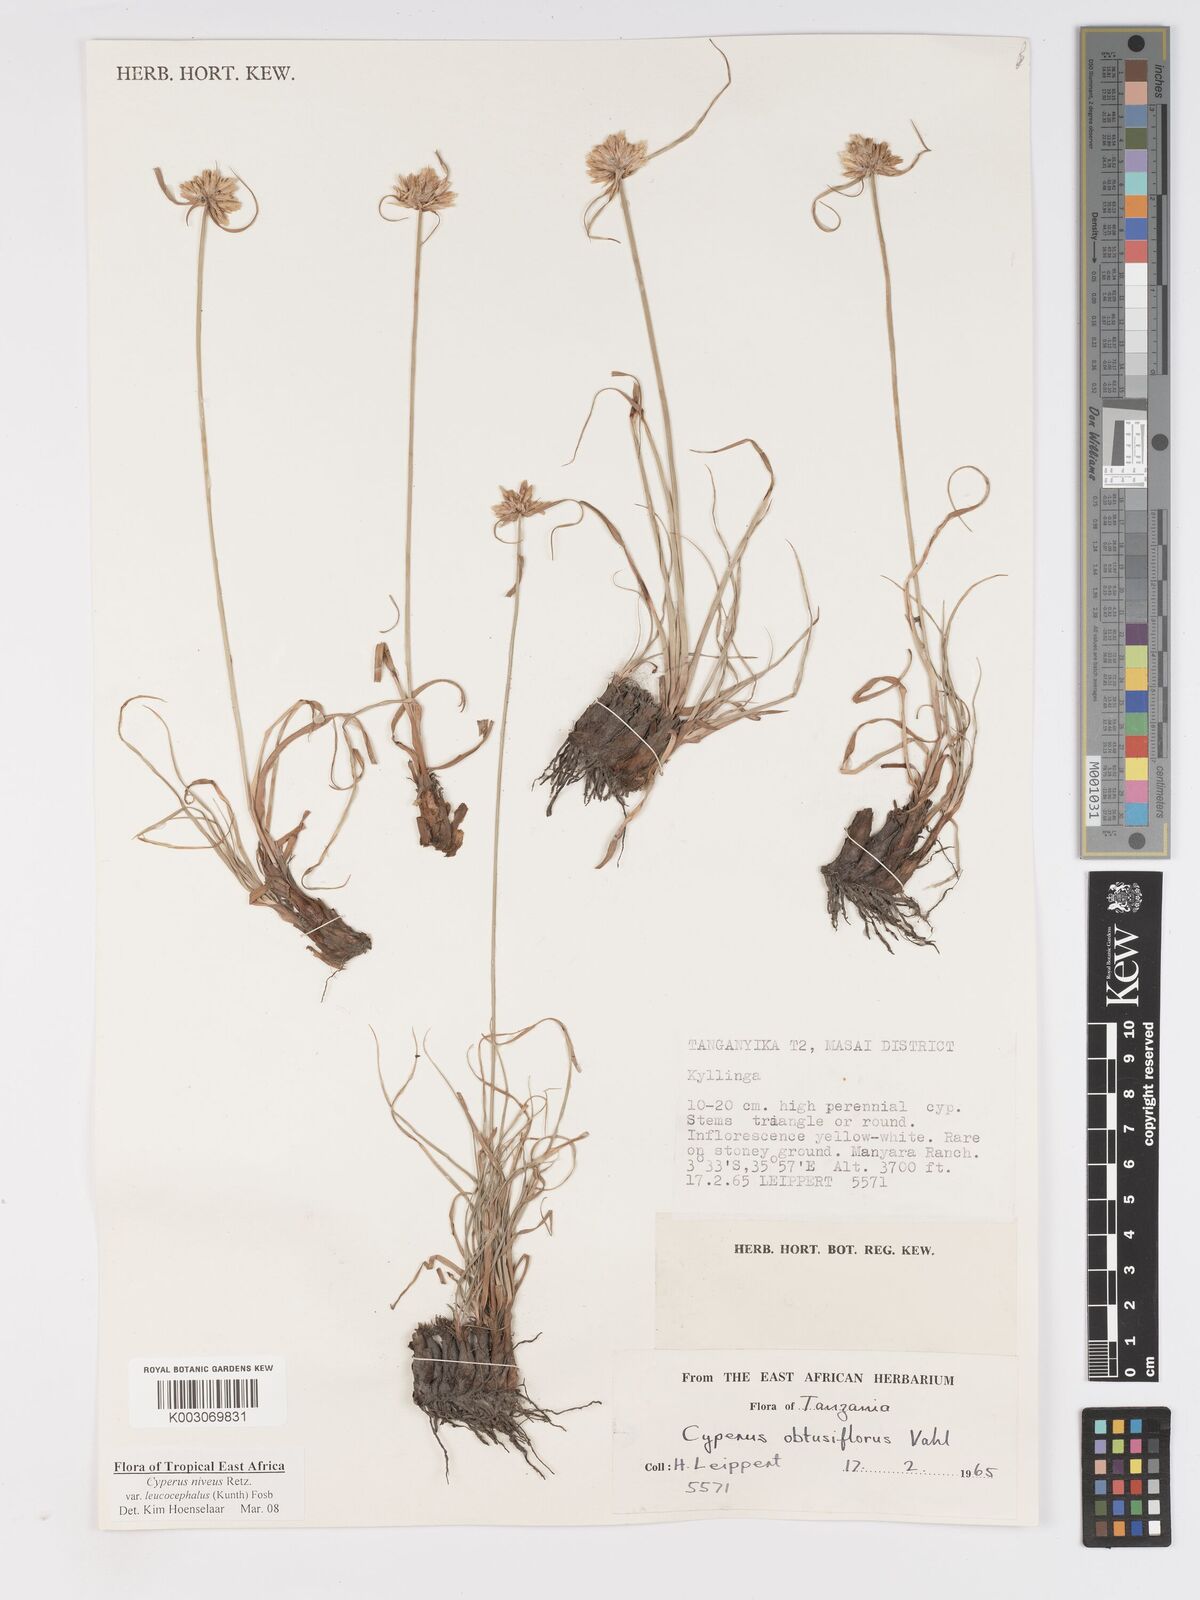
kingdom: Plantae
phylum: Tracheophyta
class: Liliopsida
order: Poales
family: Cyperaceae
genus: Cyperus
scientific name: Cyperus niveus
